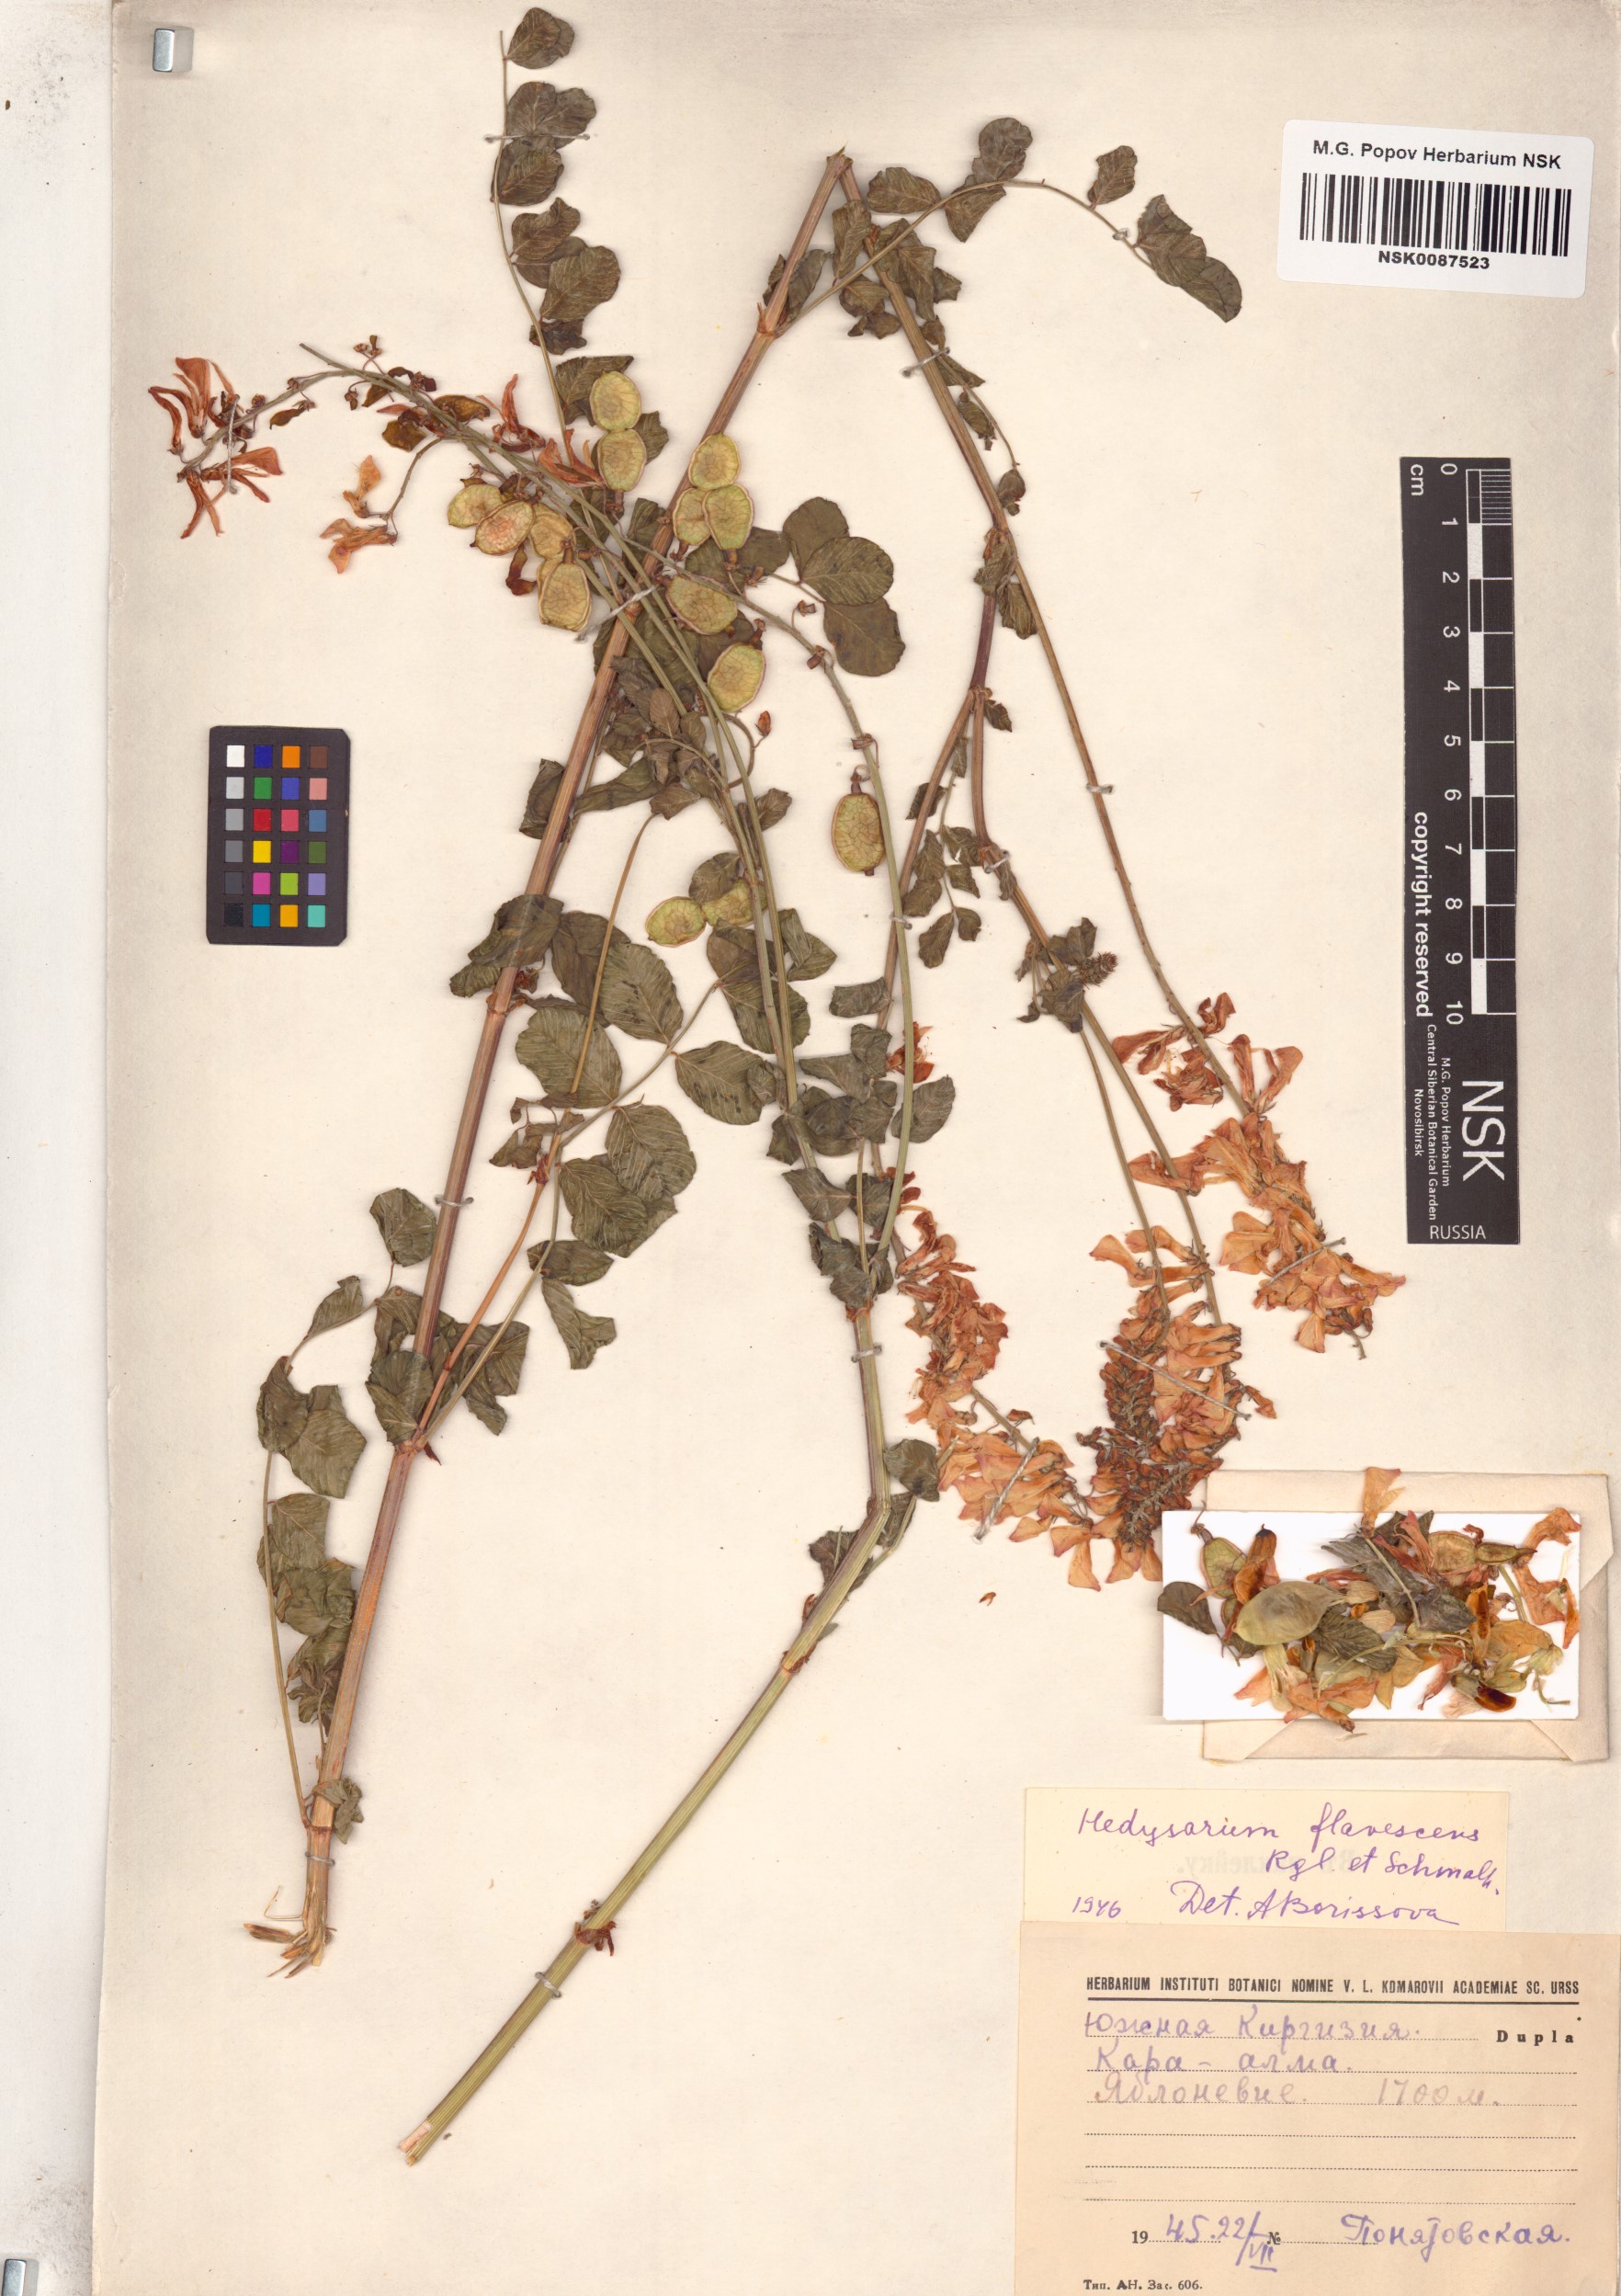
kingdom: Plantae
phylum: Tracheophyta
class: Magnoliopsida
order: Fabales
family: Fabaceae
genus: Hedysarum
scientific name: Hedysarum flavescens
